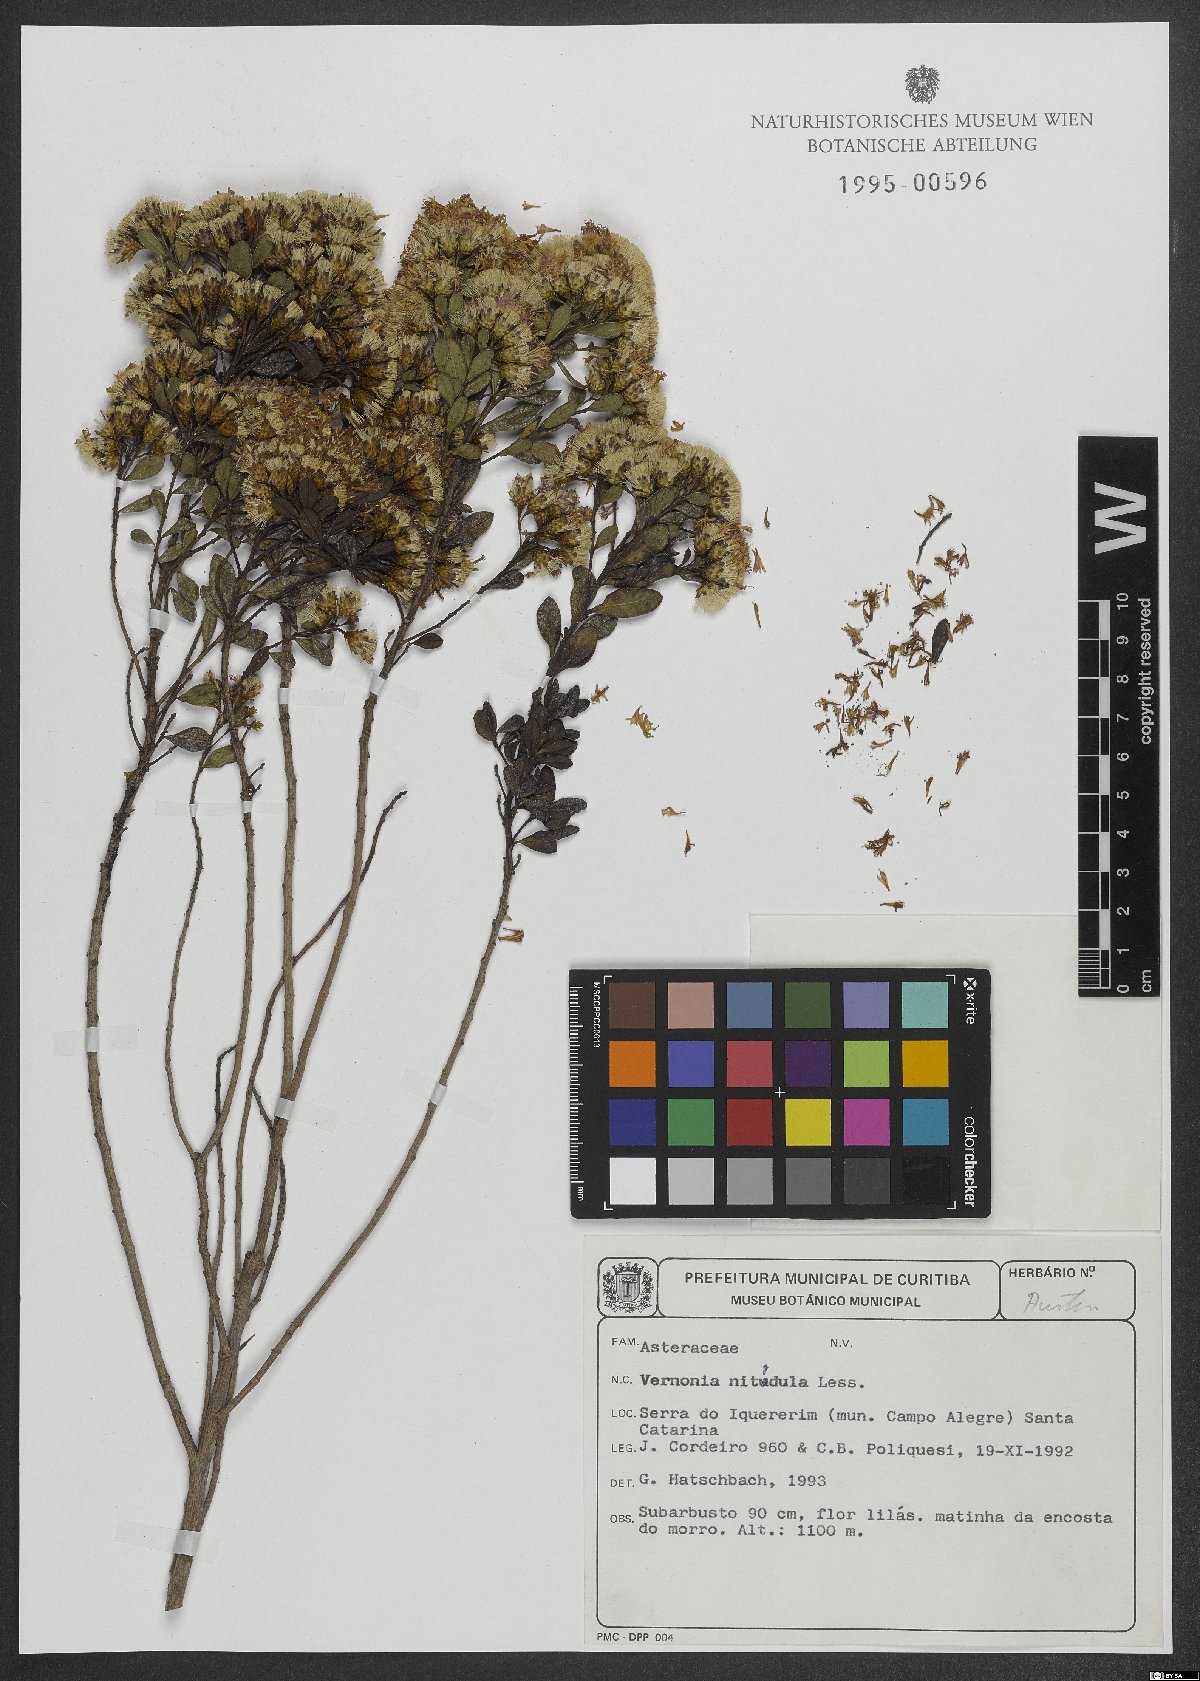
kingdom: Plantae
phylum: Tracheophyta
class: Magnoliopsida
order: Asterales
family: Asteraceae
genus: Vernonanthura
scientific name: Vernonanthura montevidensis
